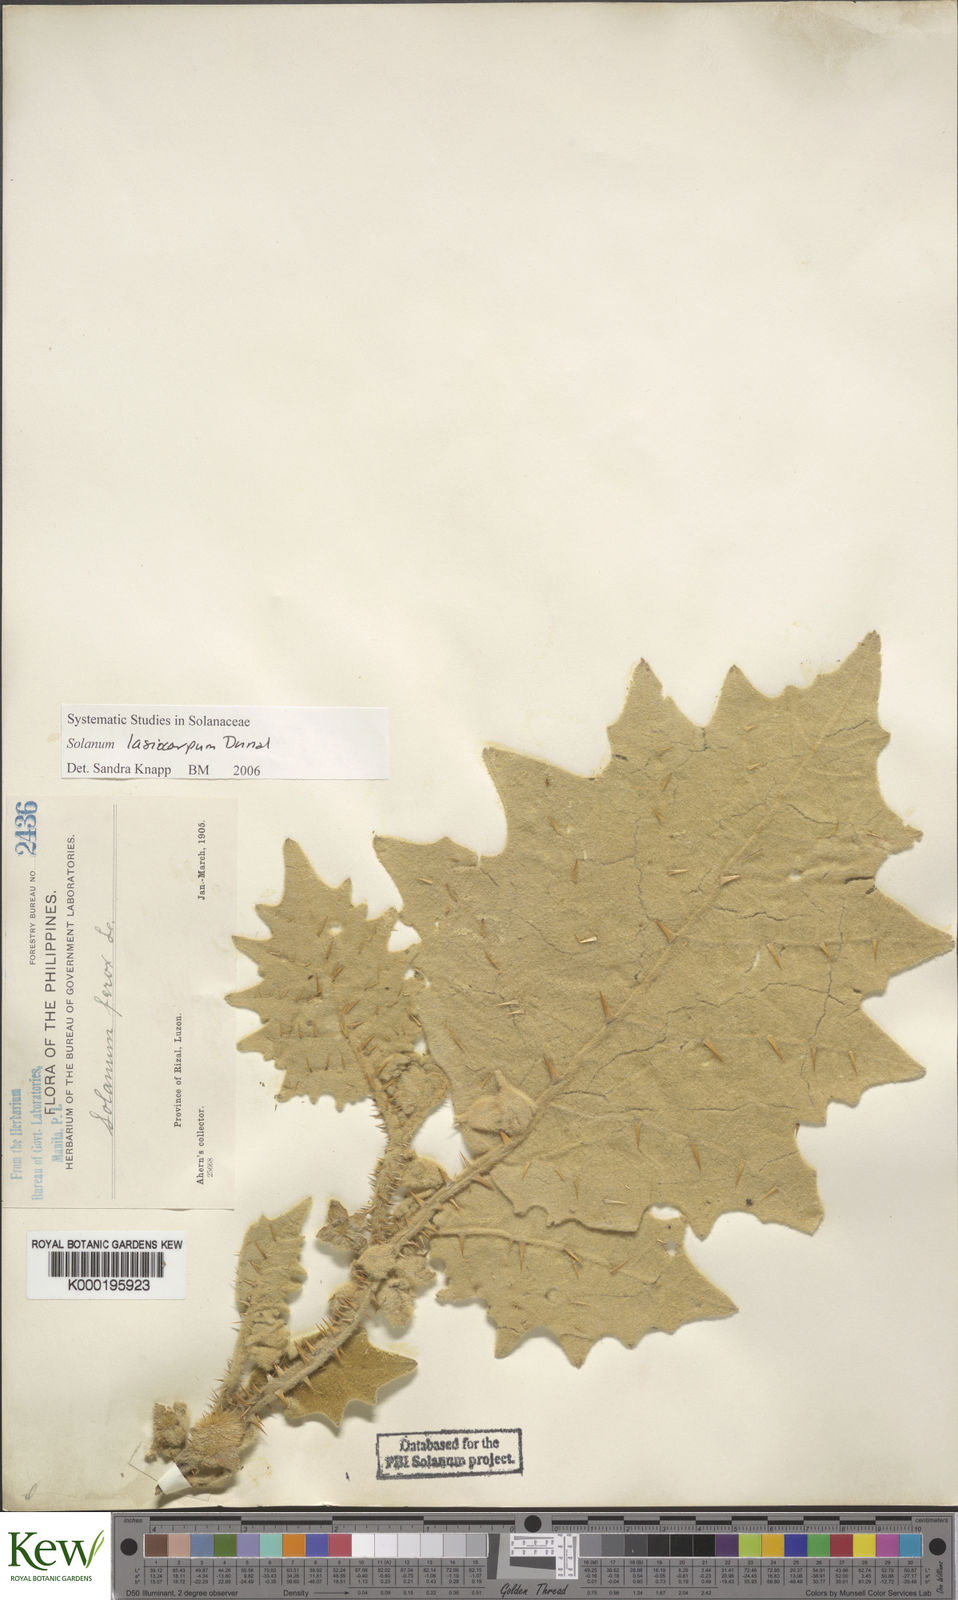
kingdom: Plantae
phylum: Tracheophyta
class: Magnoliopsida
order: Solanales
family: Solanaceae
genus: Solanum
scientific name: Solanum lasiocarpum
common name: Indian nightshade
